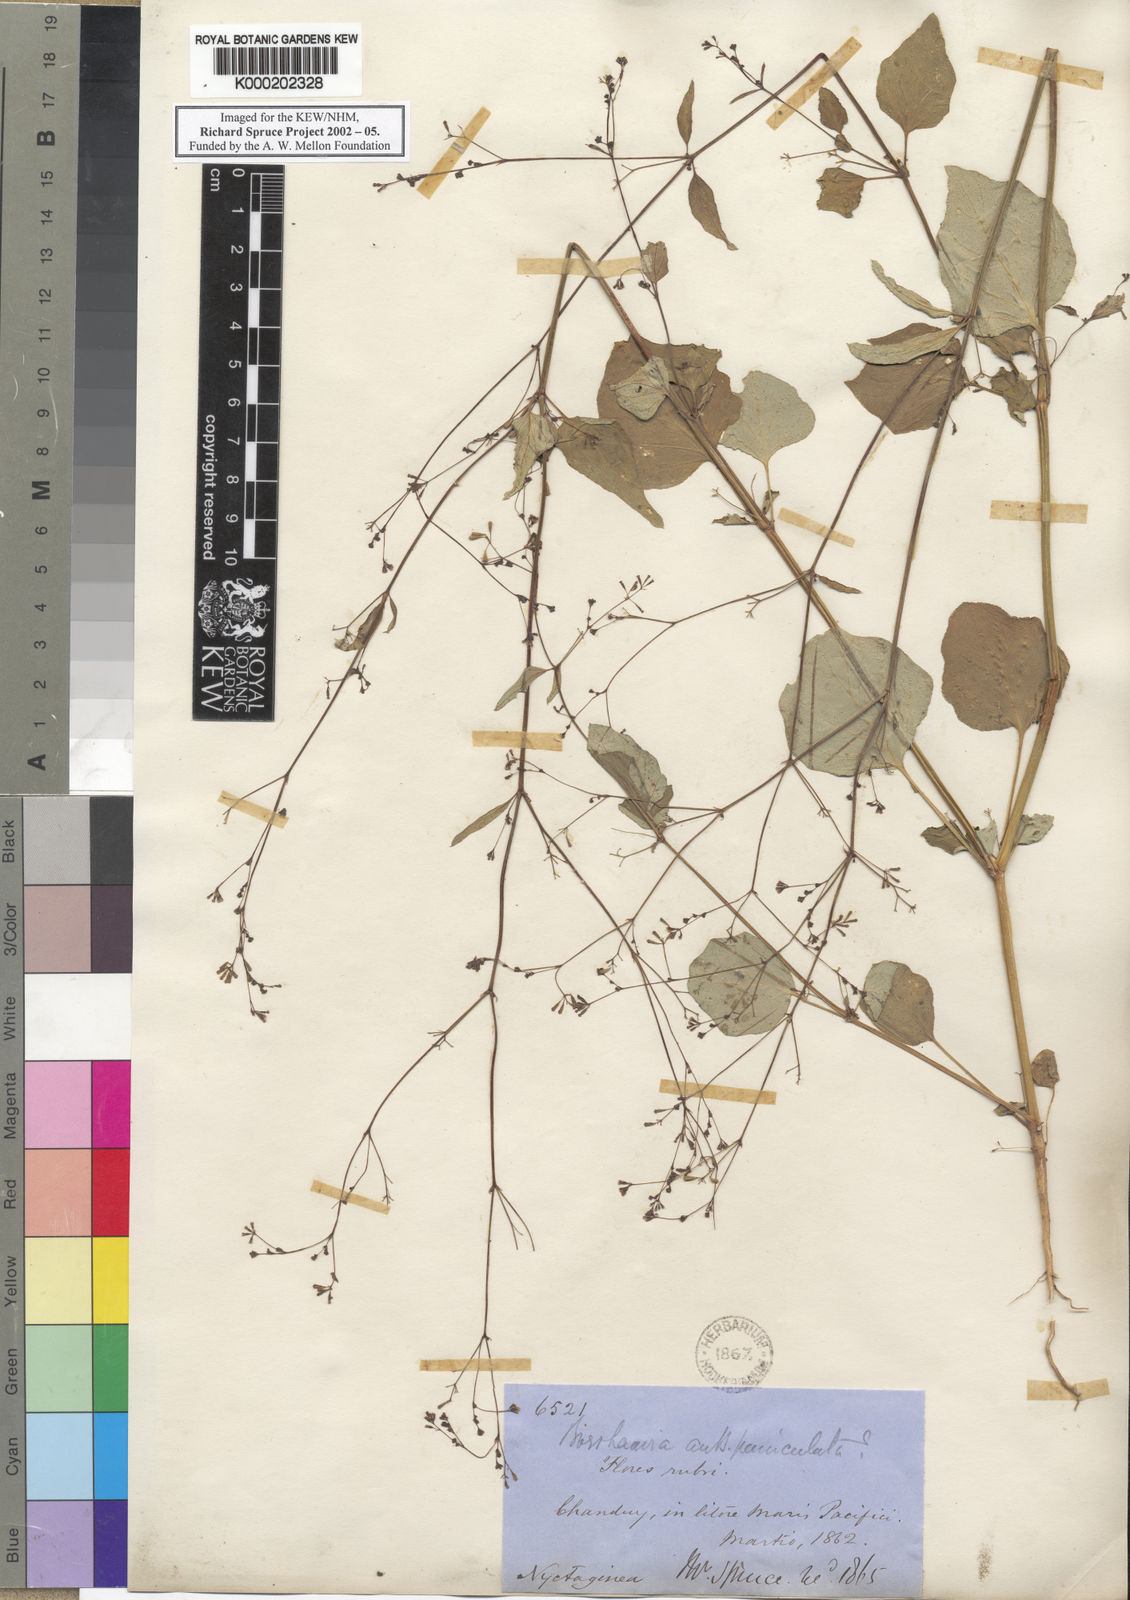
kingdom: Plantae
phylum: Tracheophyta
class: Magnoliopsida
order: Caryophyllales
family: Nyctaginaceae
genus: Boerhavia
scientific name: Boerhavia erecta
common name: Erect spiderling
